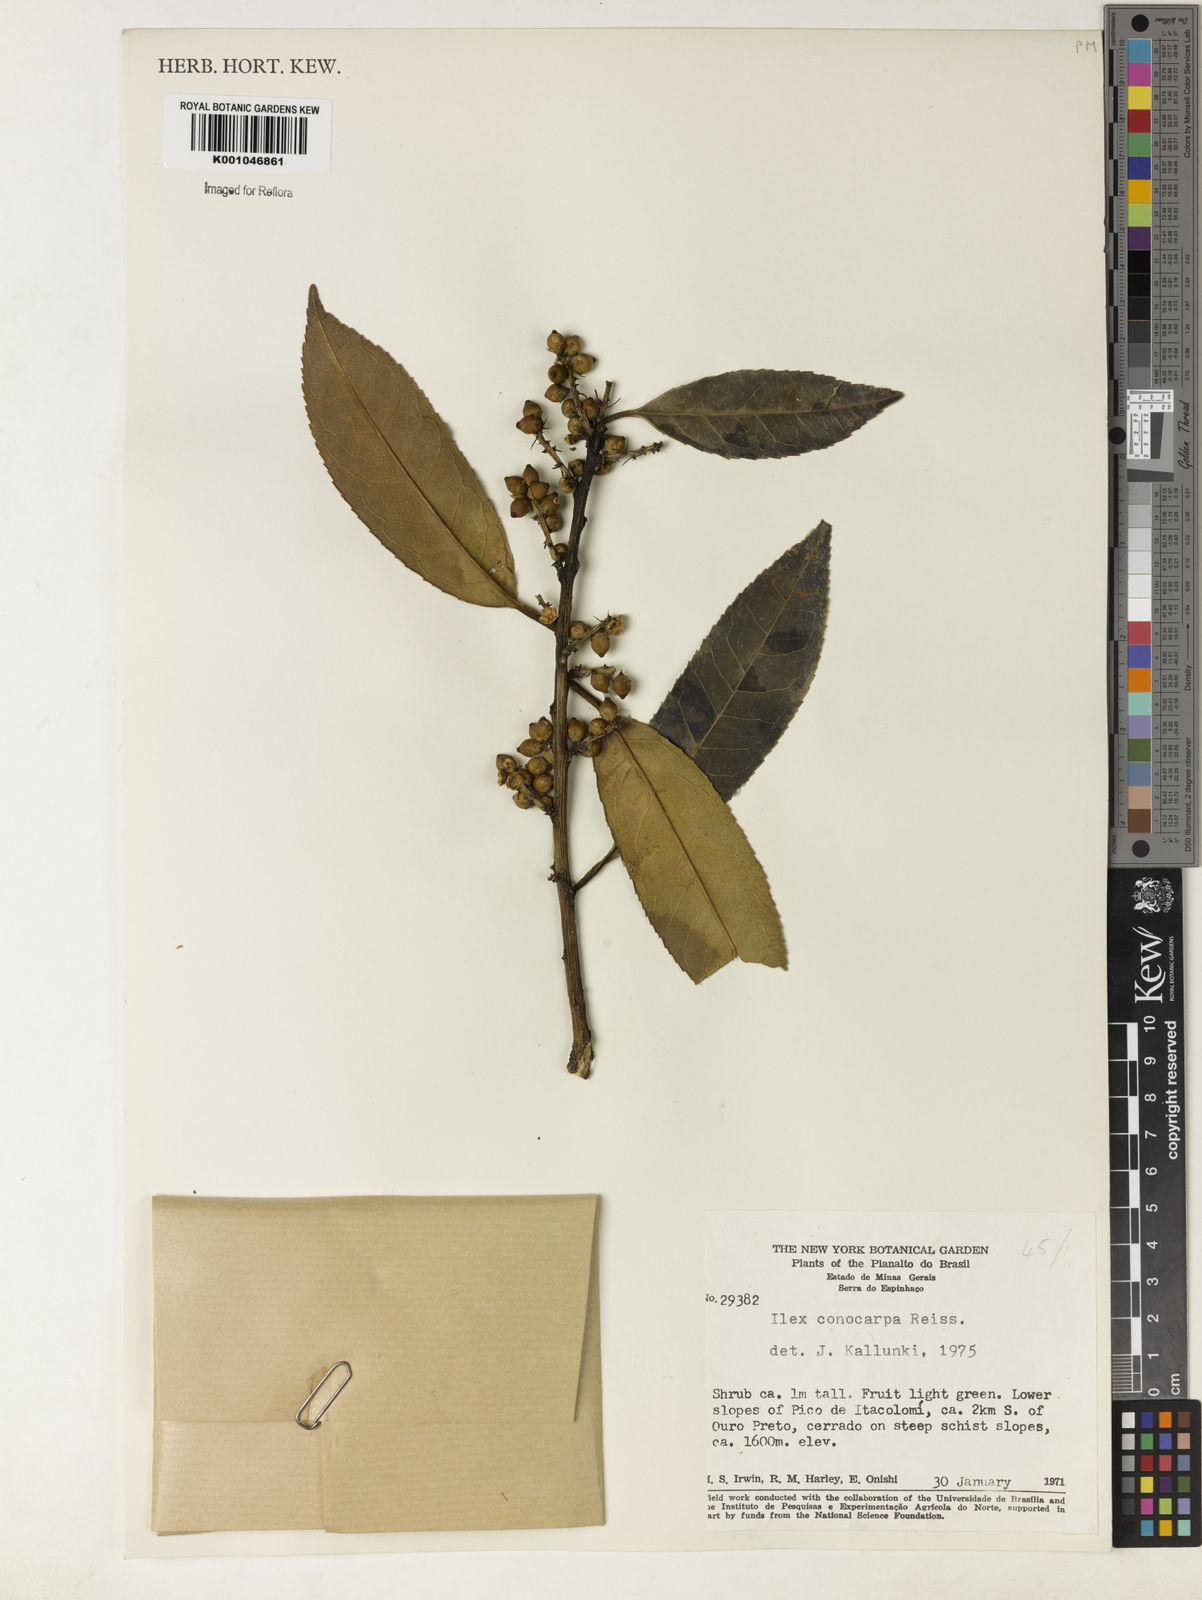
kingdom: Plantae
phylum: Tracheophyta
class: Magnoliopsida
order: Aquifoliales
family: Aquifoliaceae
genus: Ilex
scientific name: Ilex conocarpa
